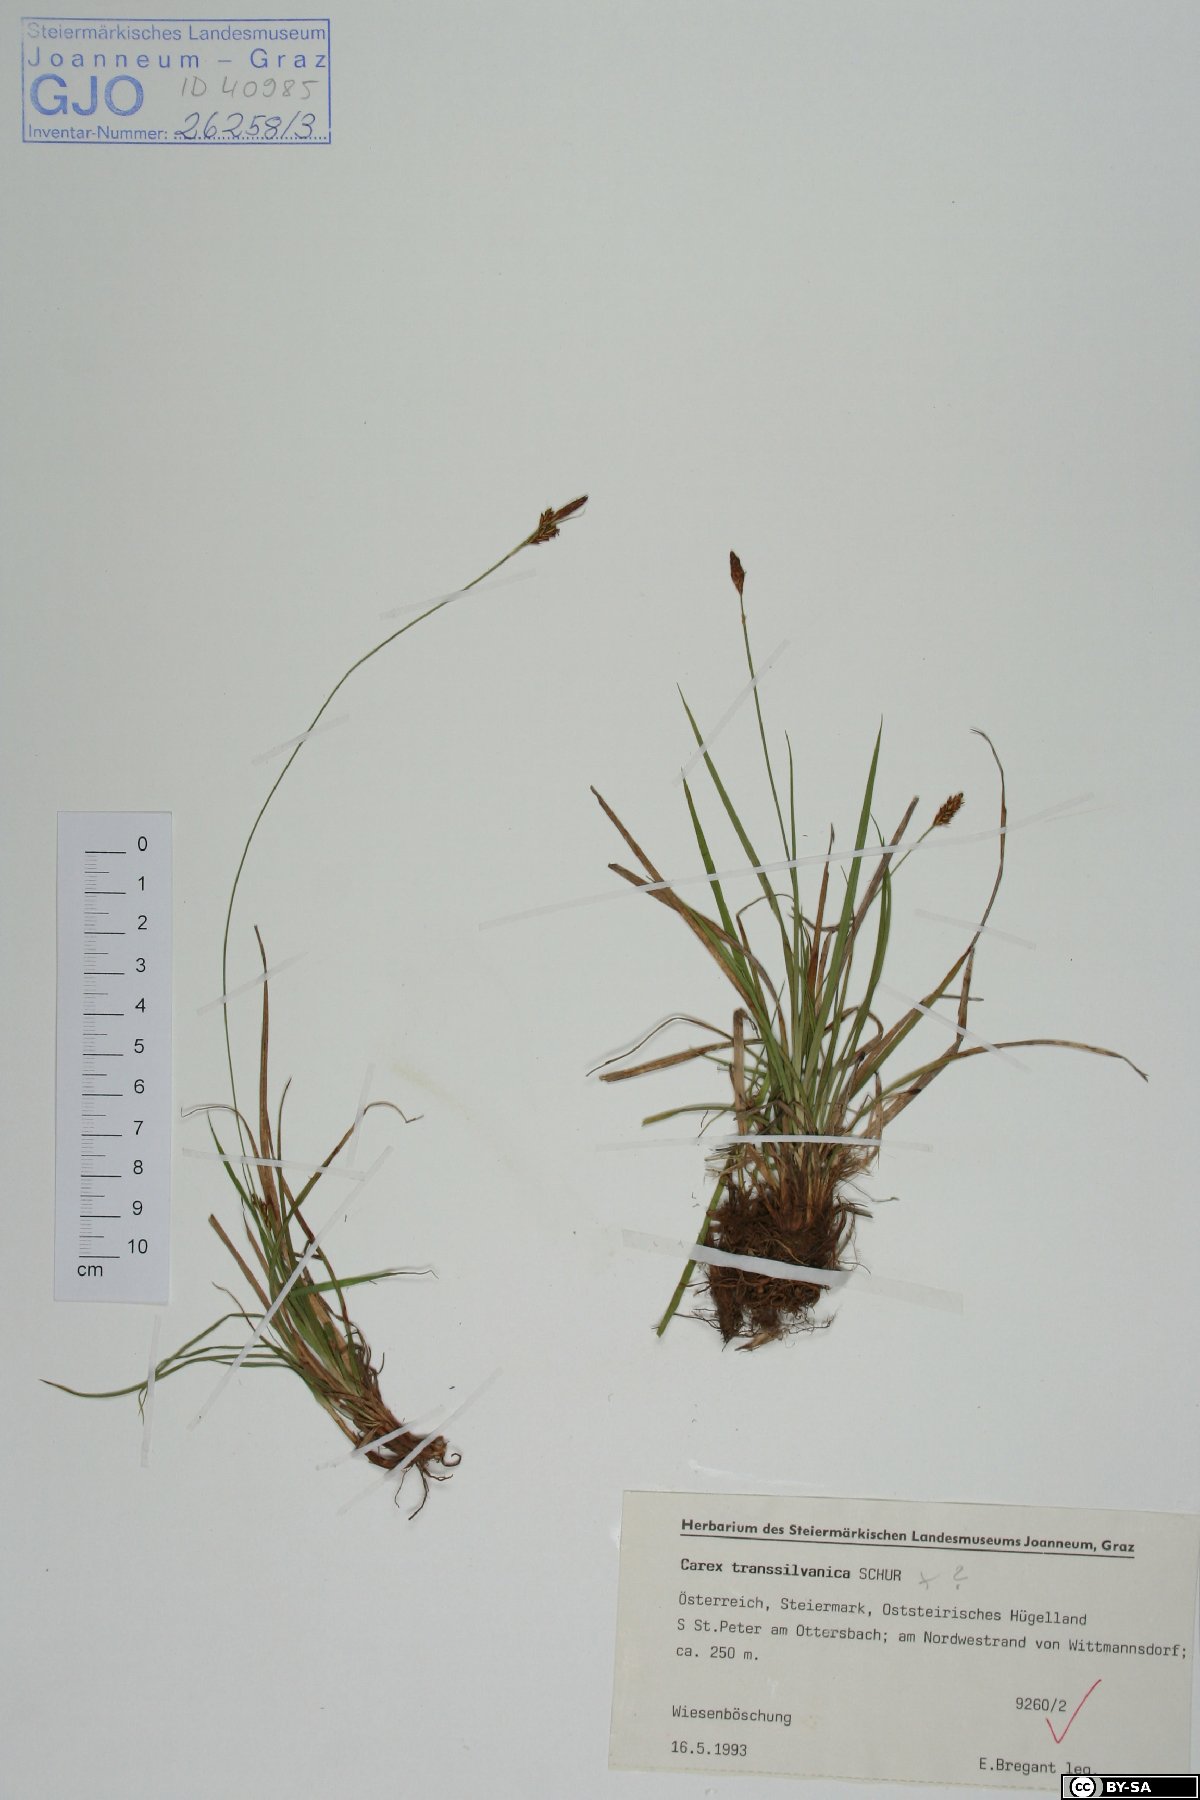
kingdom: Plantae
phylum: Tracheophyta
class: Liliopsida
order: Poales
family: Cyperaceae
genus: Carex
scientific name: Carex depressa
